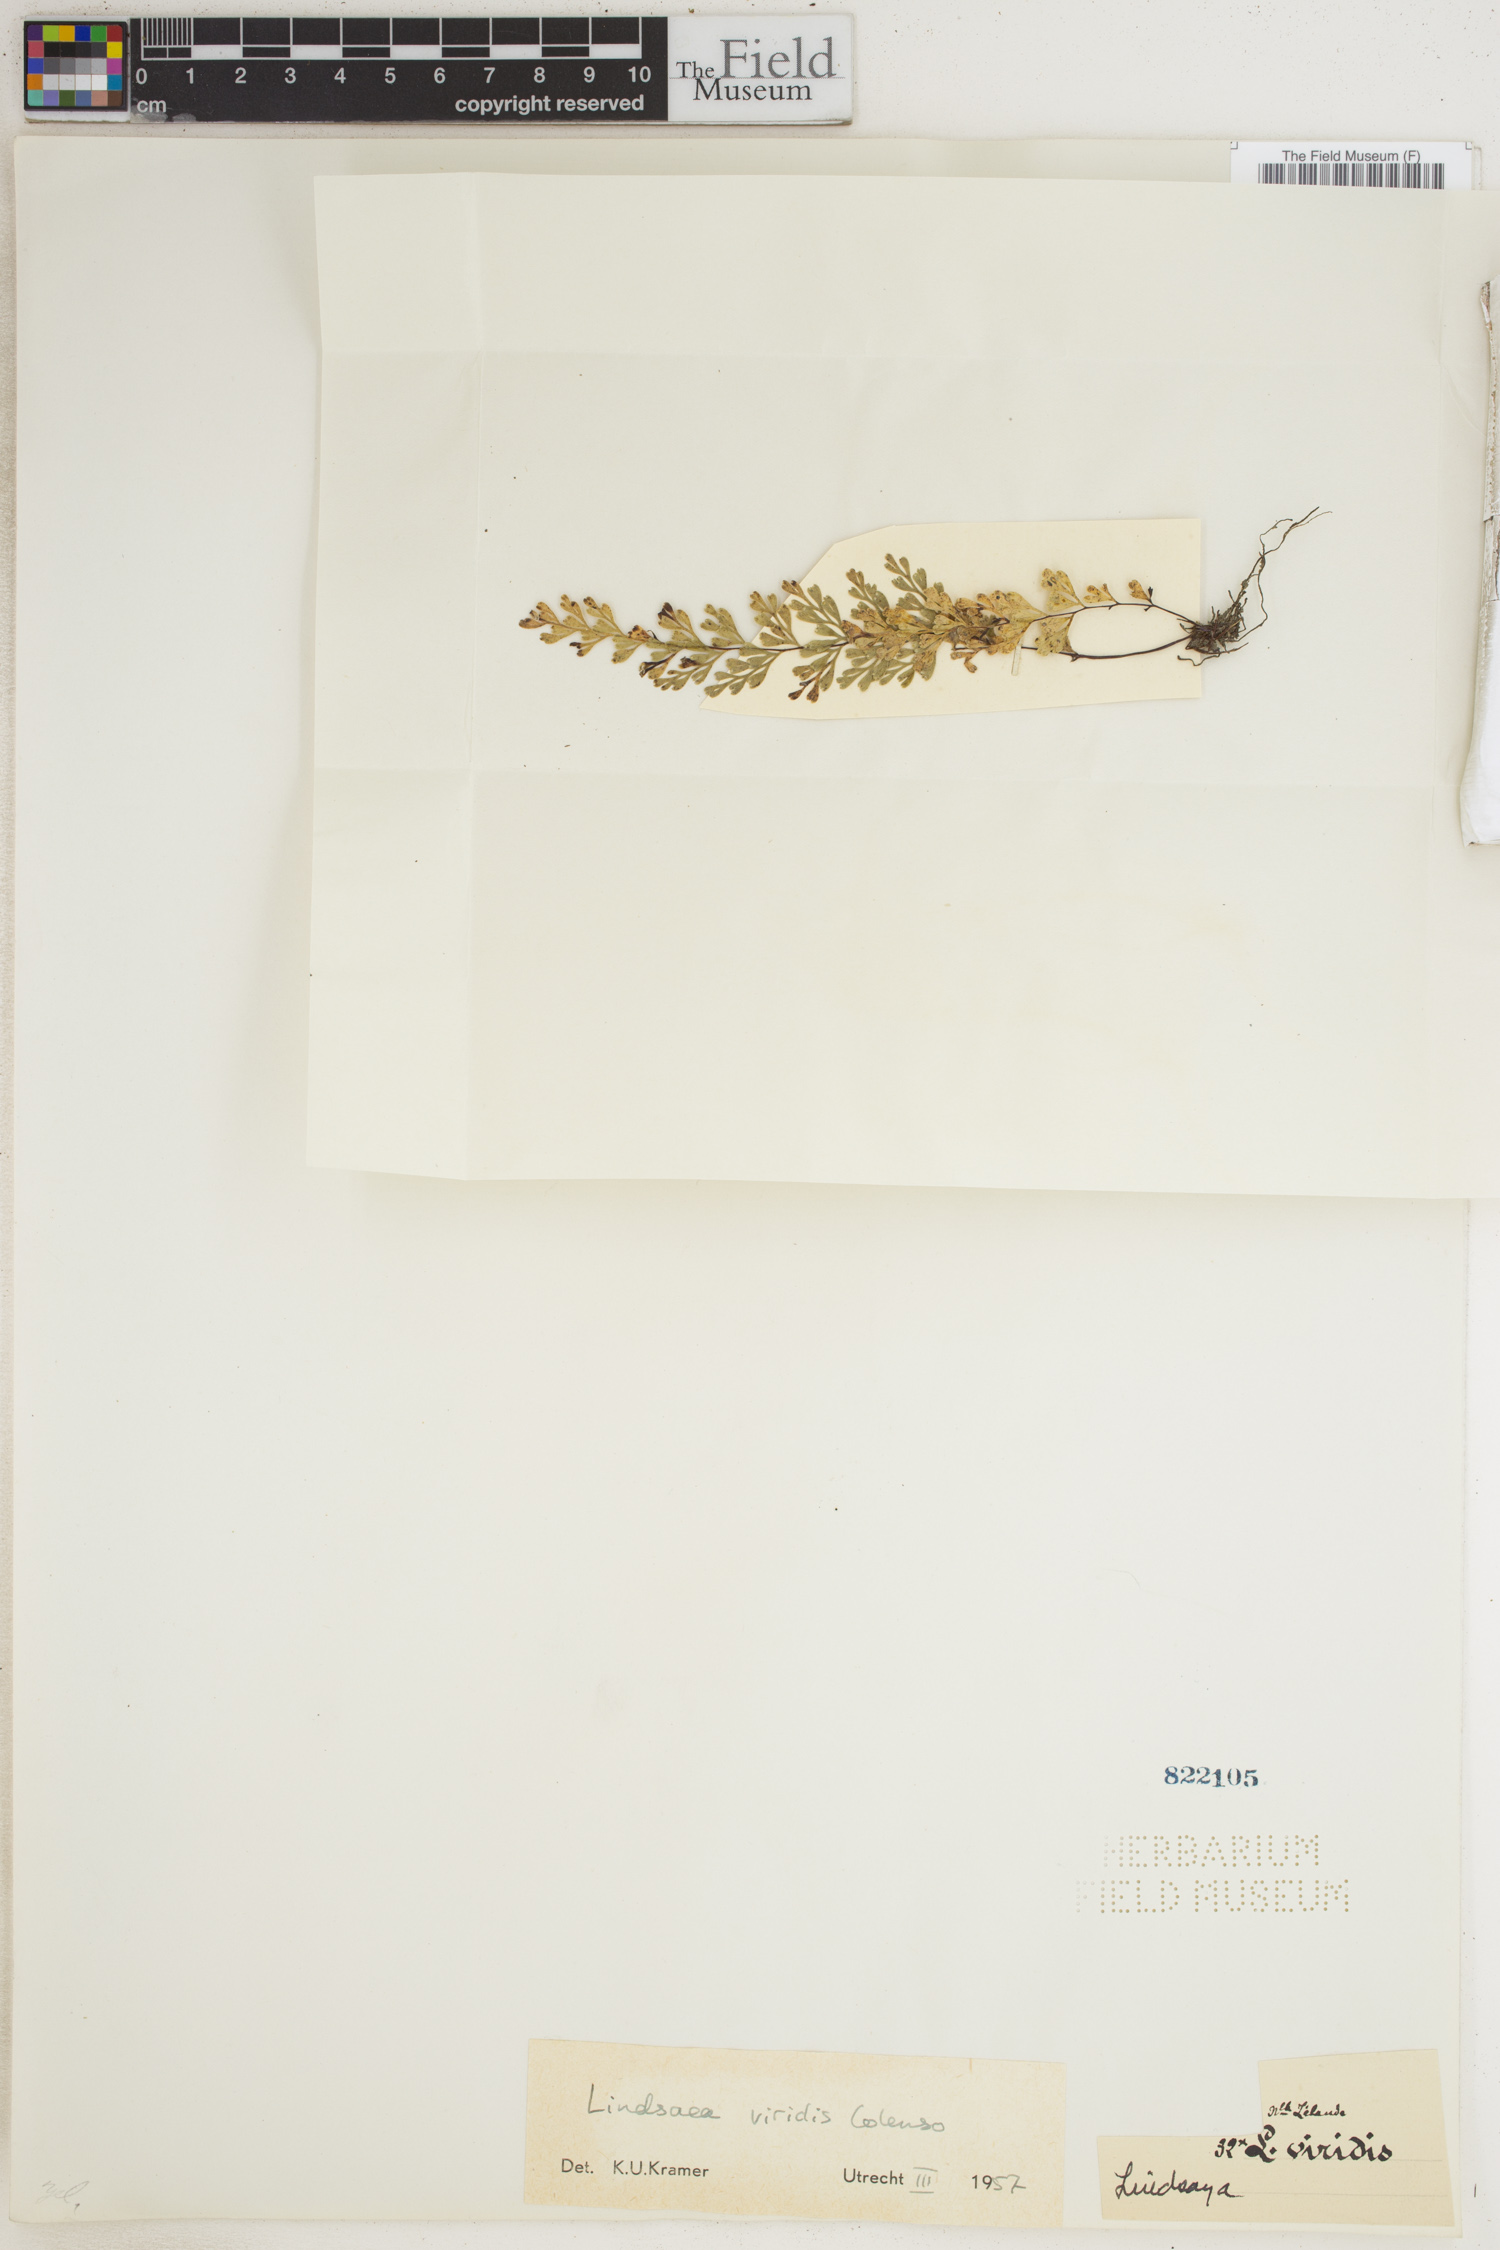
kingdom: Plantae
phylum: Tracheophyta
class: Polypodiopsida
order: Polypodiales
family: Lindsaeaceae
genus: Odontosoria
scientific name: Odontosoria viridis
